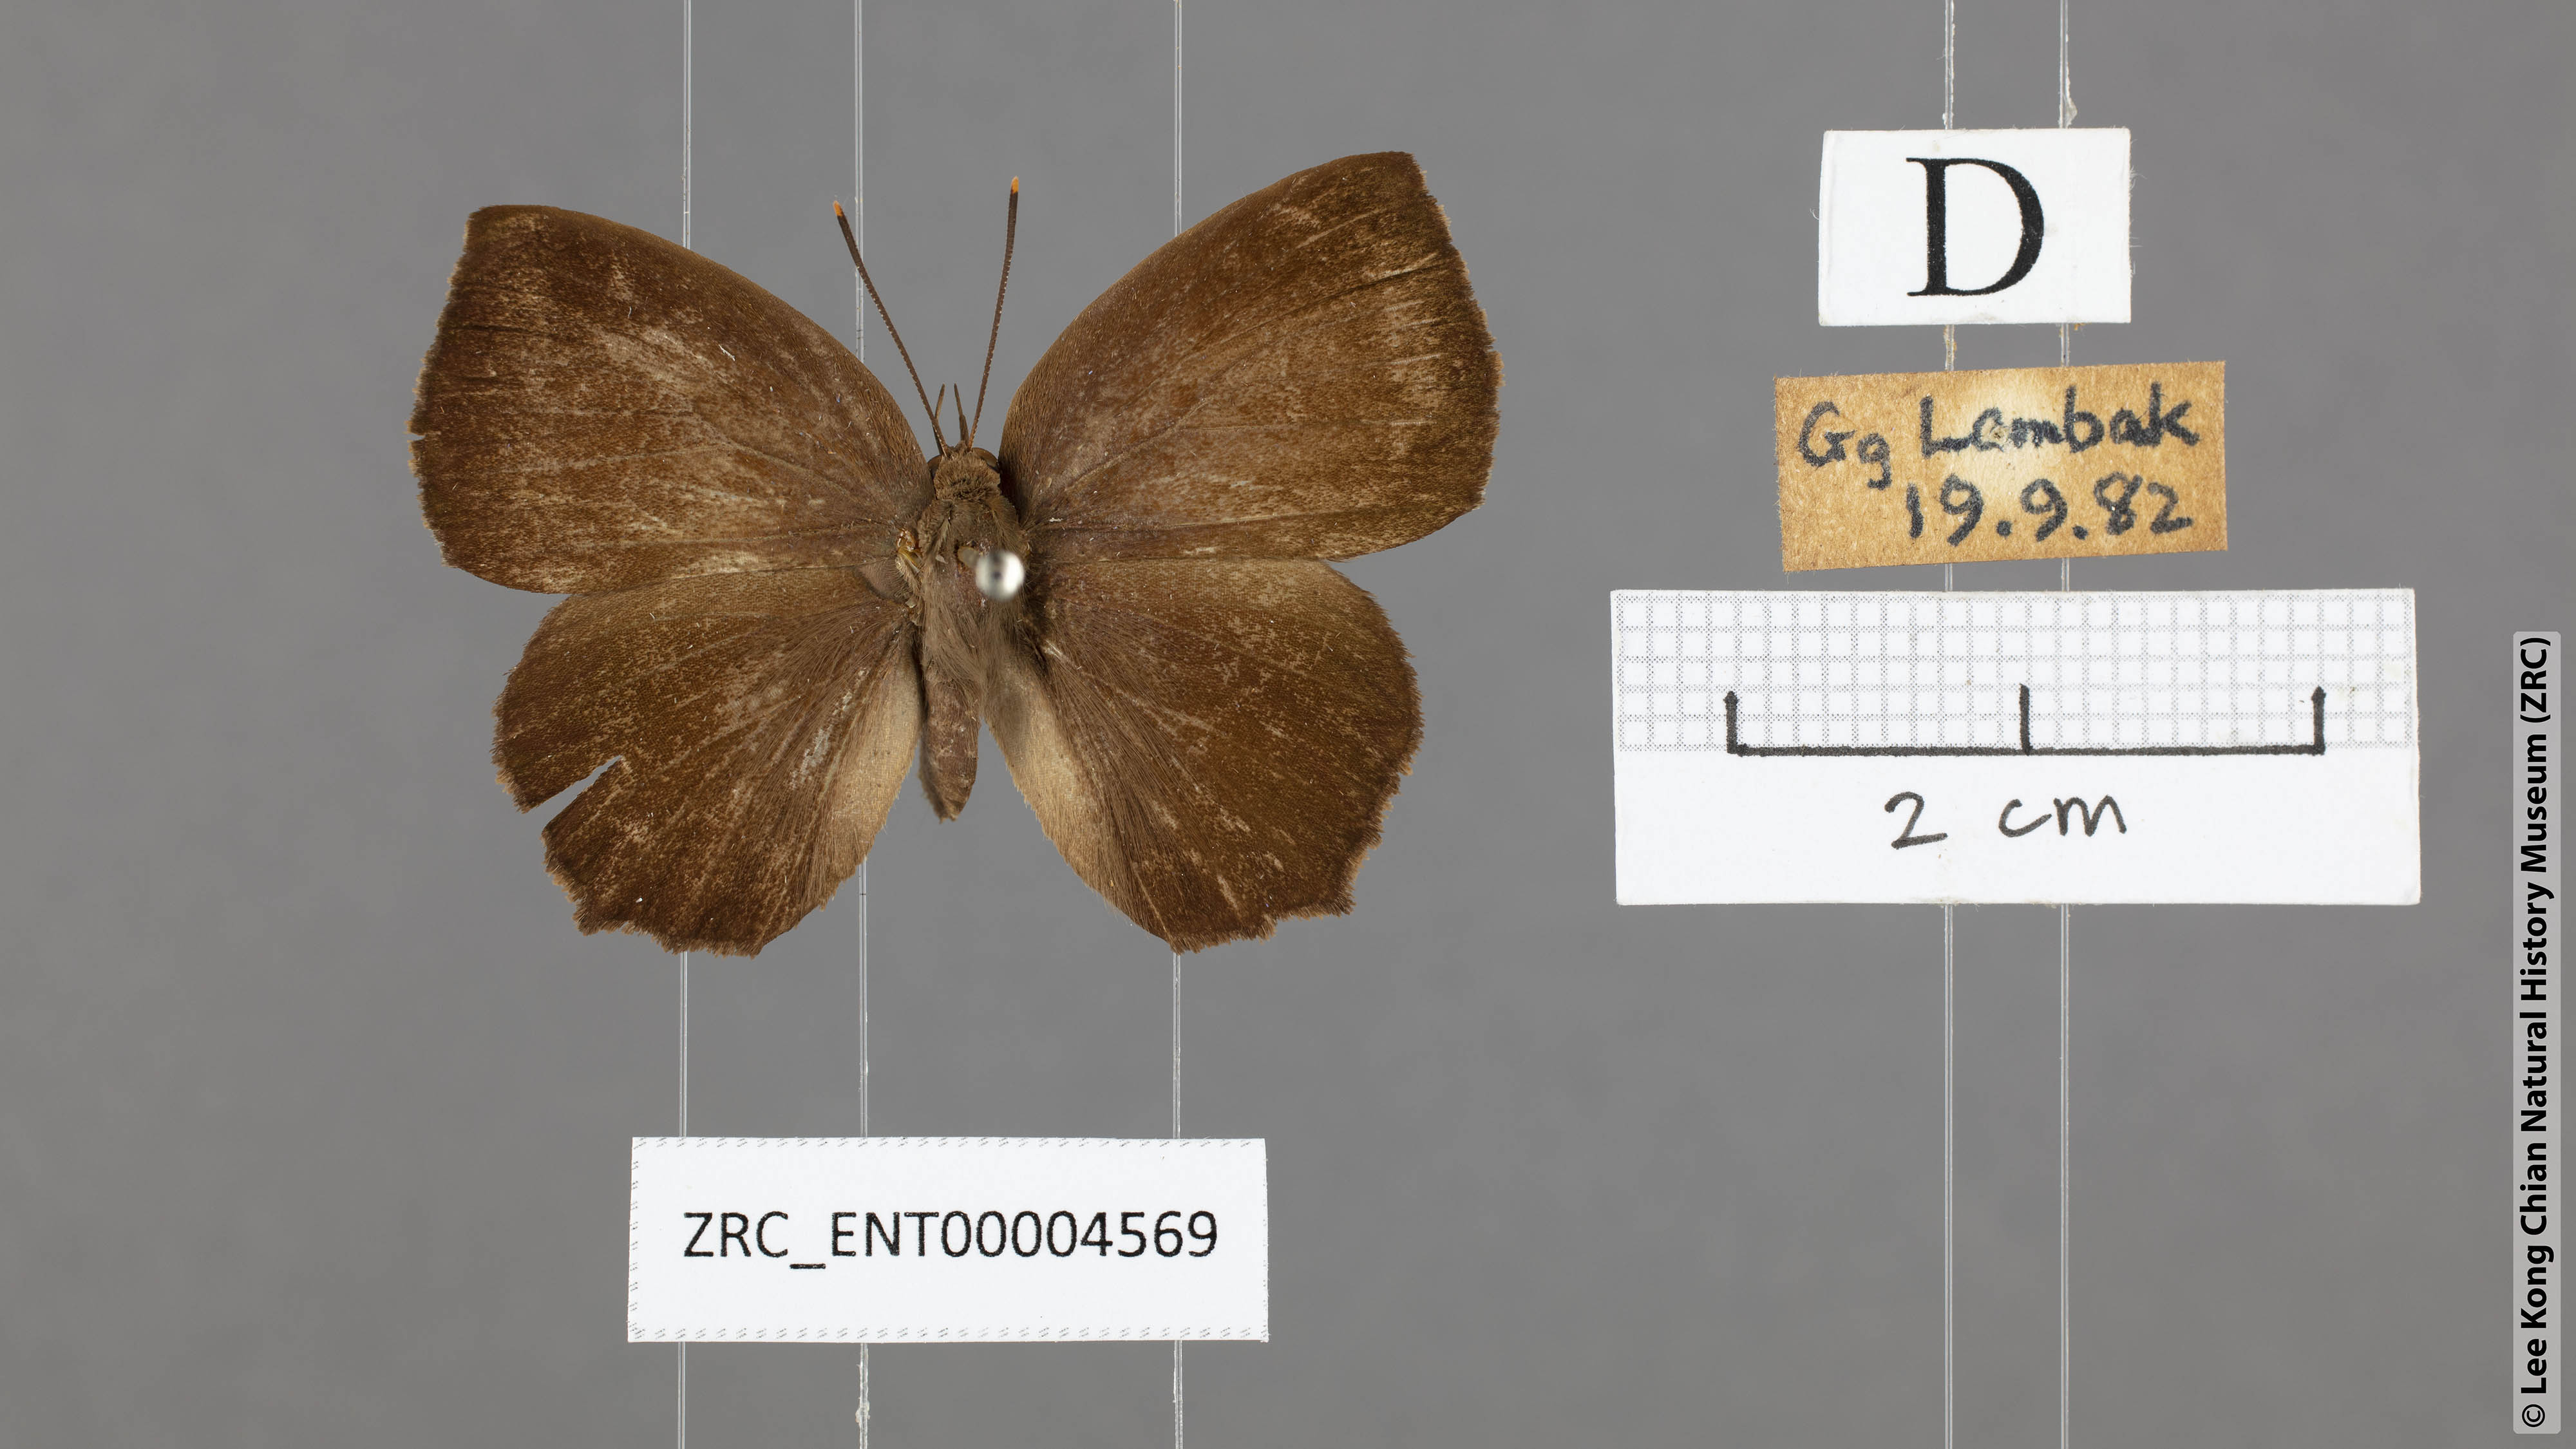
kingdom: Animalia
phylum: Arthropoda
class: Insecta
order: Lepidoptera
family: Lycaenidae
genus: Surendra
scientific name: Surendra florimel
